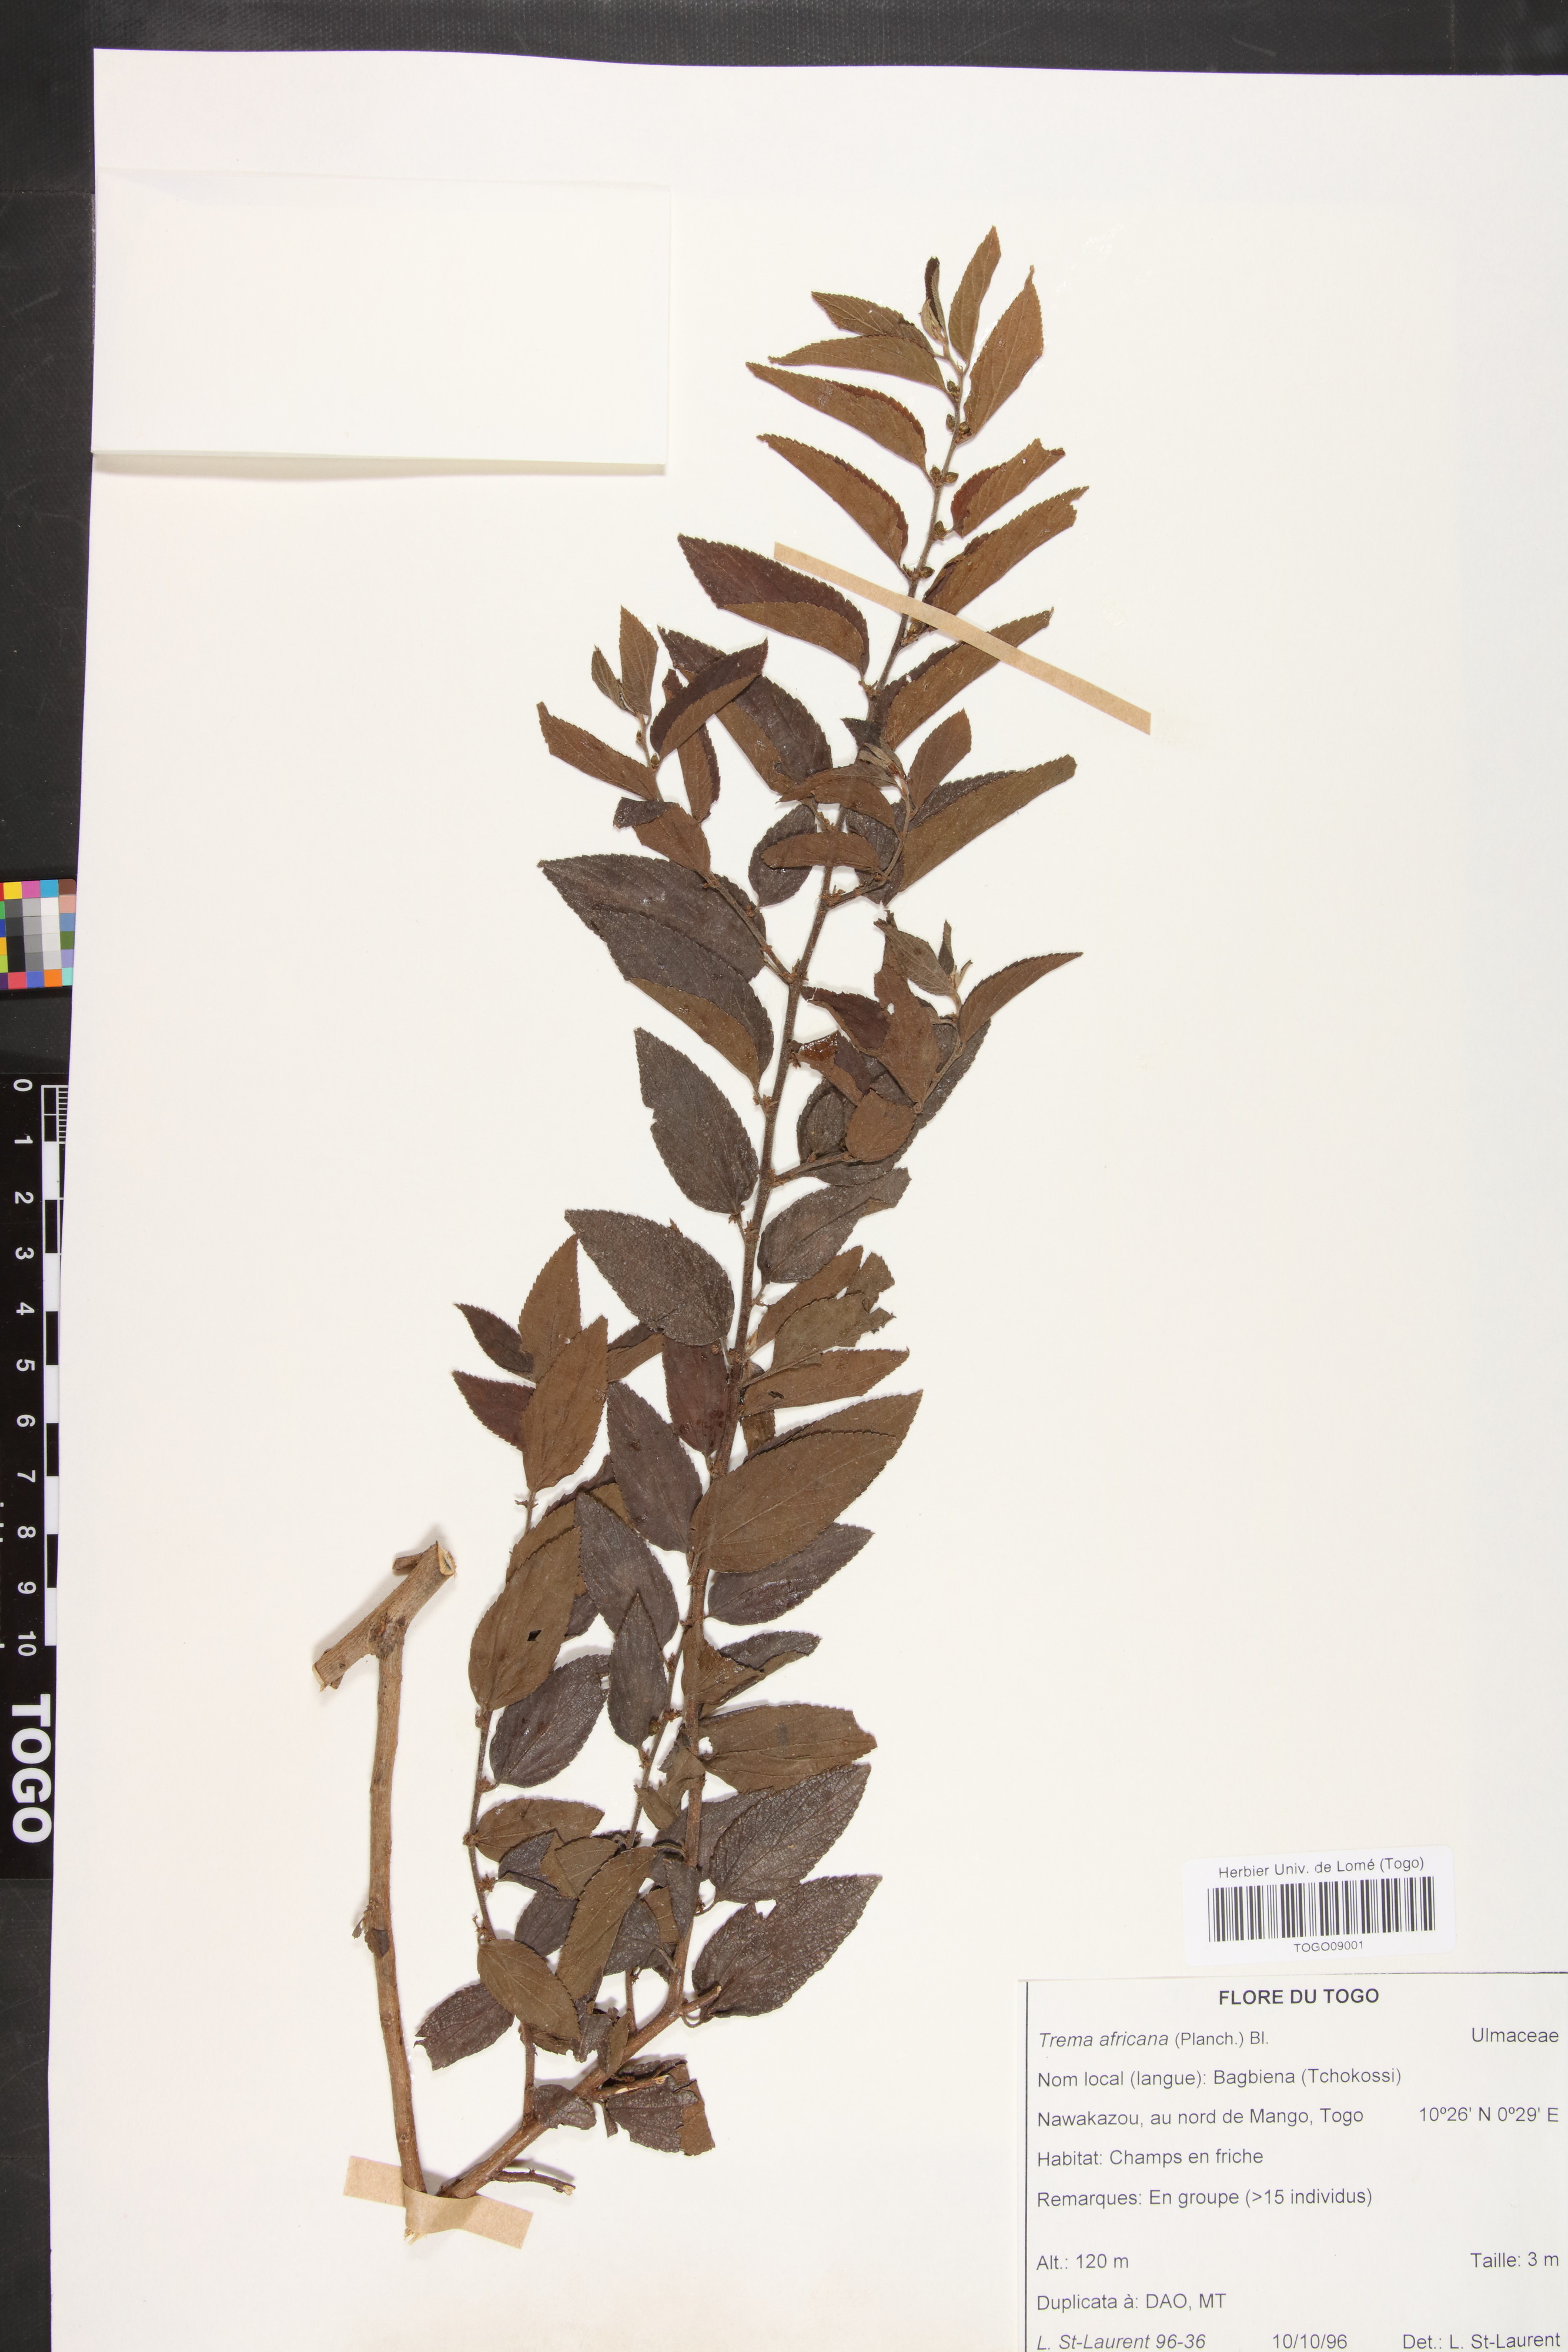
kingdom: Plantae
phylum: Tracheophyta
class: Magnoliopsida
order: Rosales
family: Cannabaceae
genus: Trema
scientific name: Trema orientale
